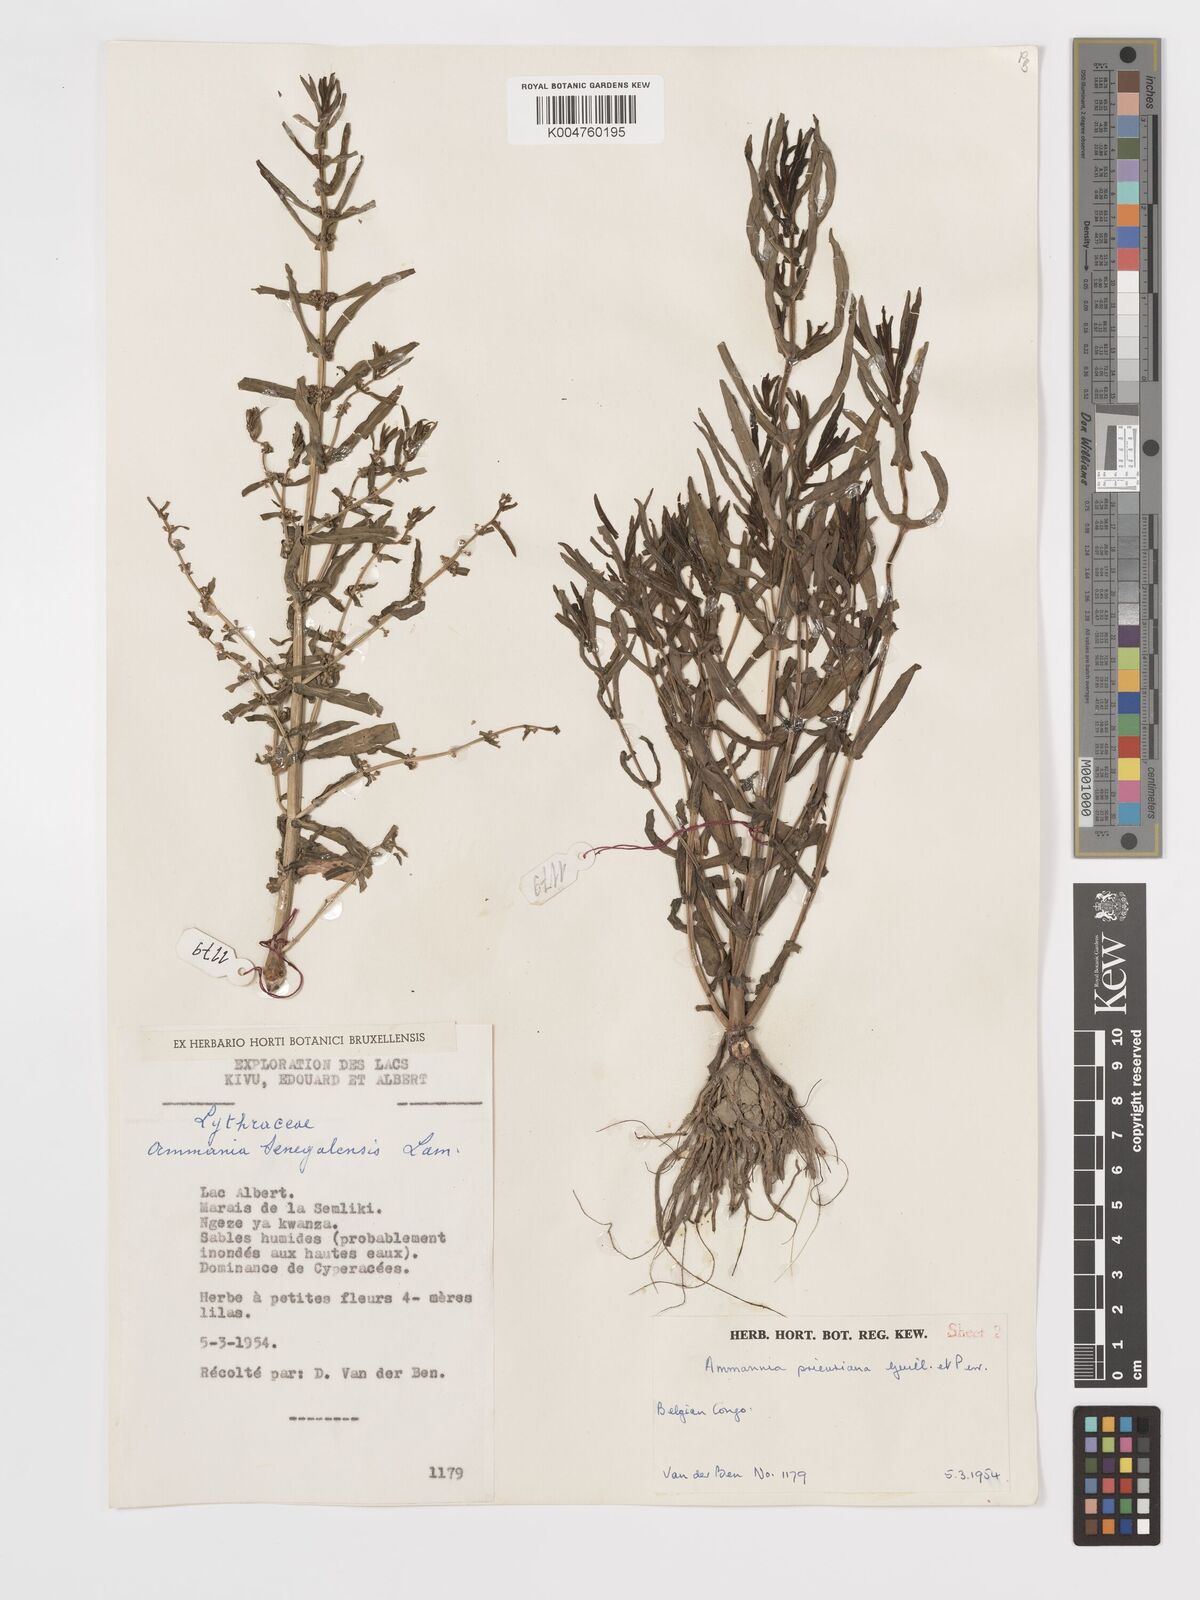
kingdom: Plantae
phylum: Tracheophyta
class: Magnoliopsida
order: Myrtales
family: Lythraceae
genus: Ammannia
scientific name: Ammannia prieuriana
